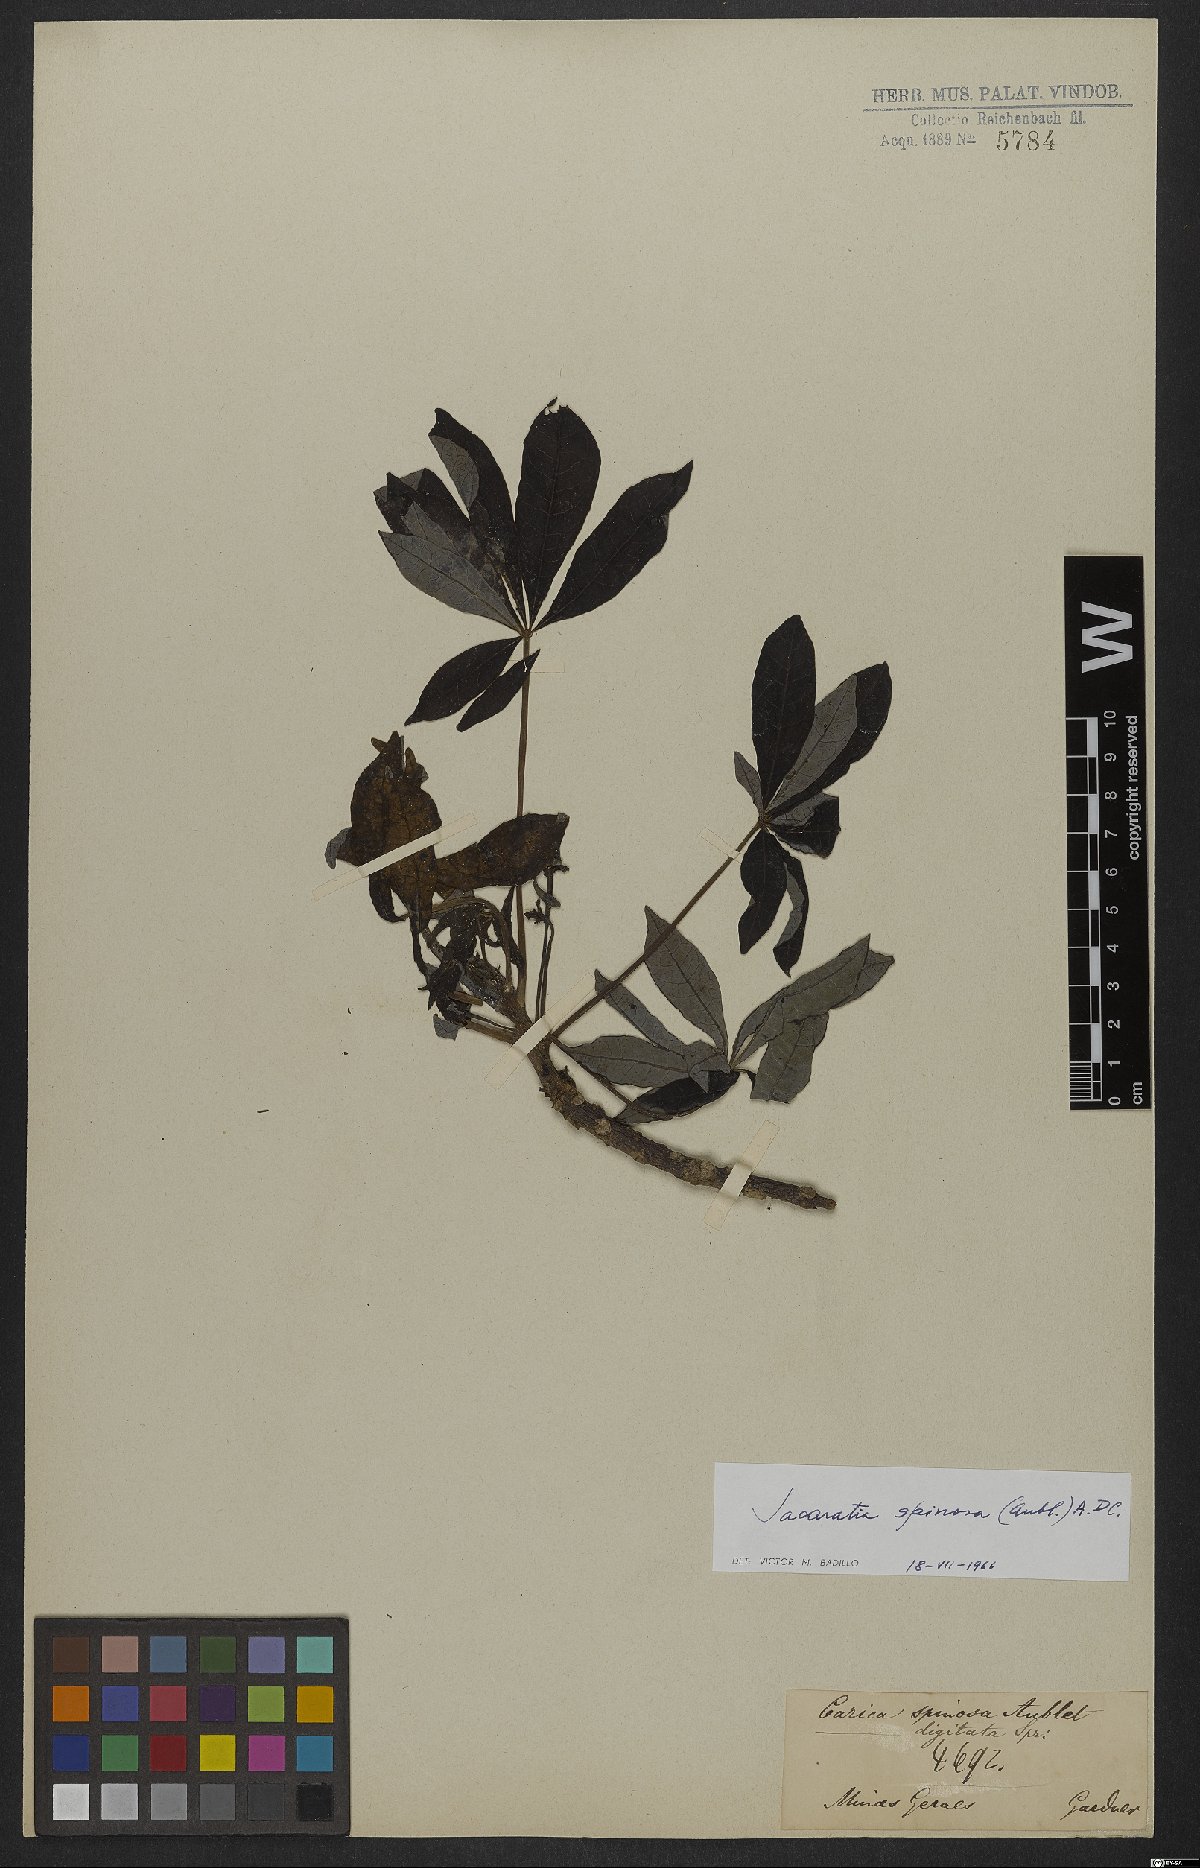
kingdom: Plantae
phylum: Tracheophyta
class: Magnoliopsida
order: Brassicales
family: Caricaceae
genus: Jacaratia
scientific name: Jacaratia spinosa
